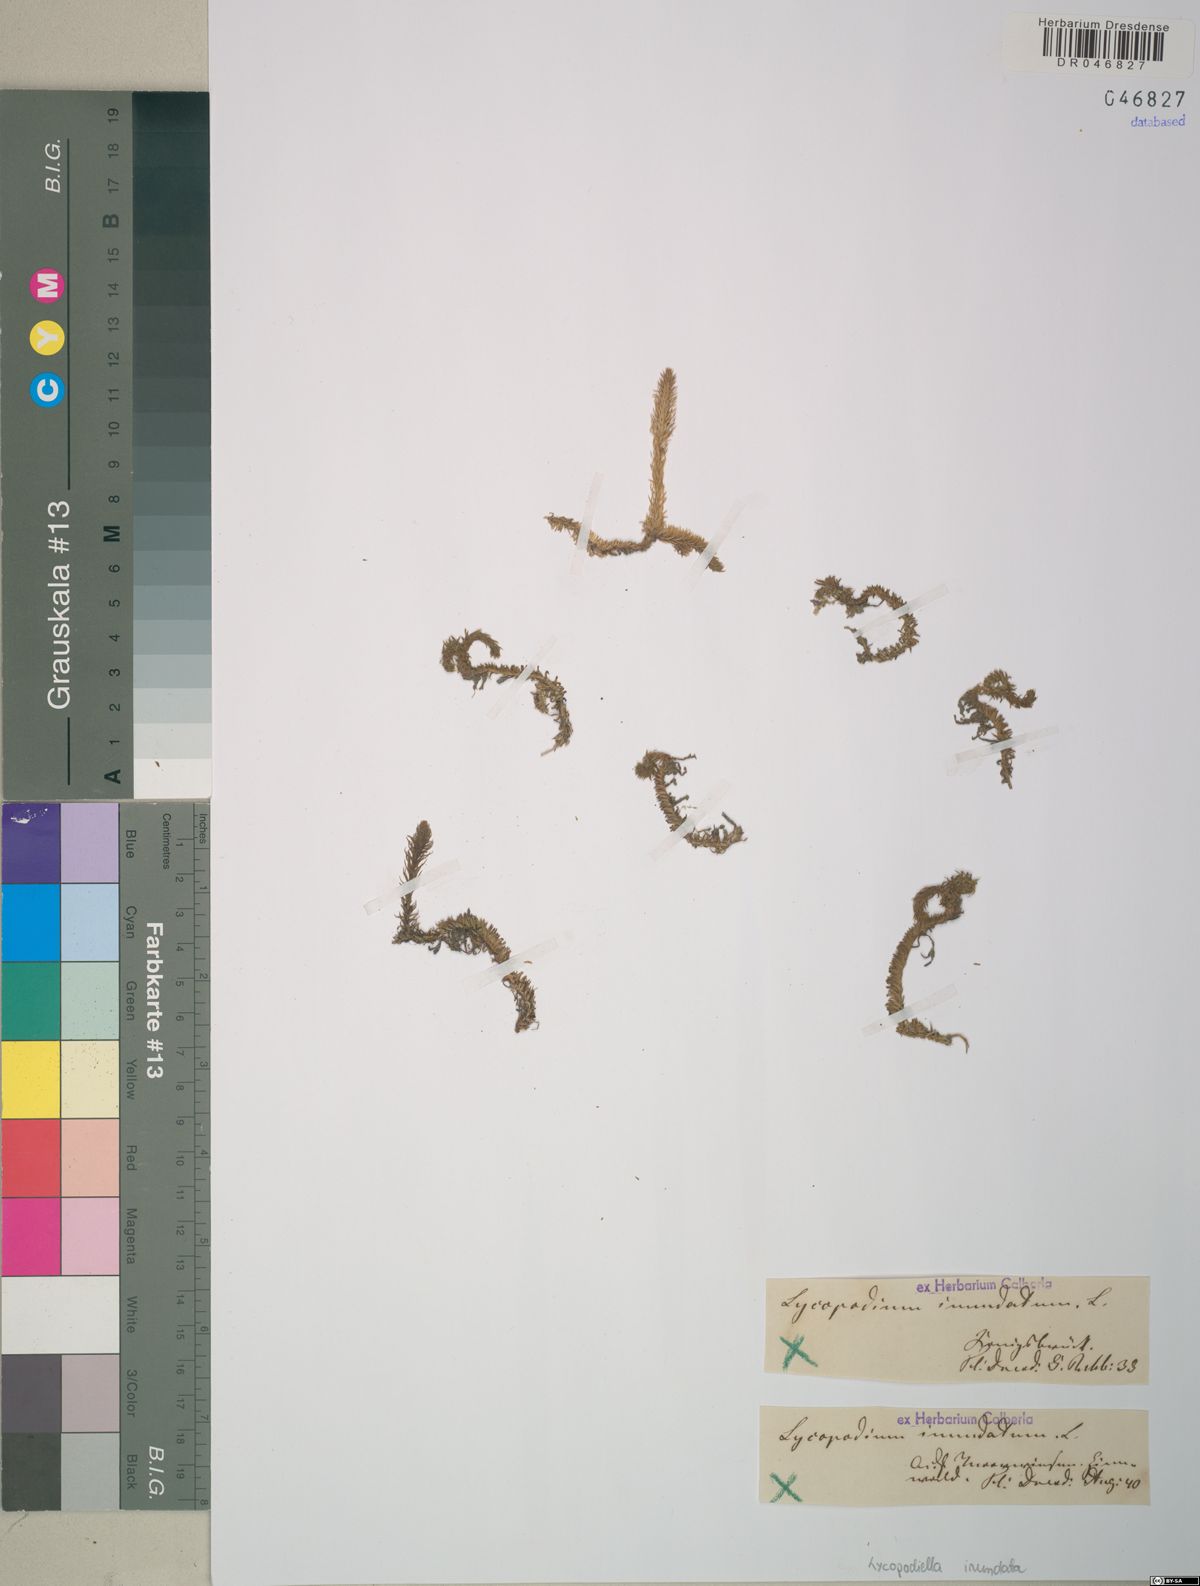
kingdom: Plantae
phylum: Tracheophyta
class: Lycopodiopsida
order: Lycopodiales
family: Lycopodiaceae
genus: Lycopodiella
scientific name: Lycopodiella inundata
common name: Marsh clubmoss
